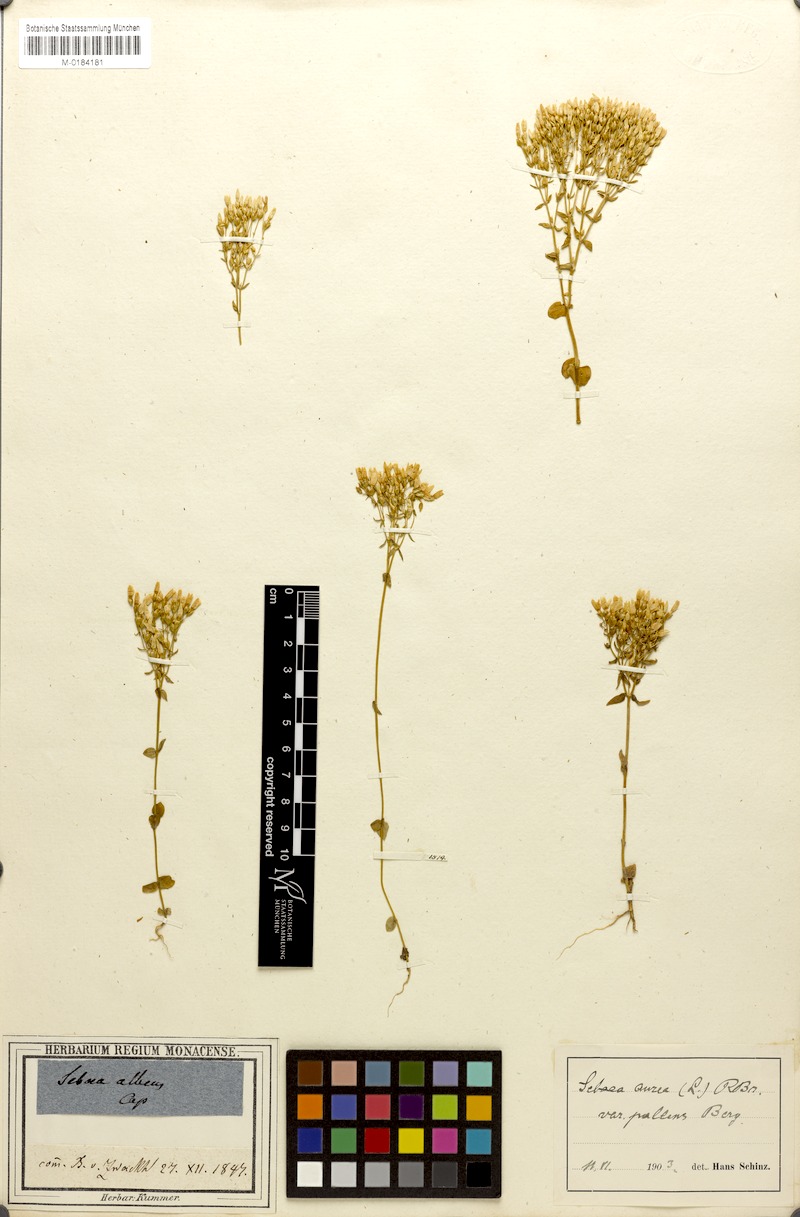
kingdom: Plantae
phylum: Tracheophyta
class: Magnoliopsida
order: Gentianales
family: Gentianaceae
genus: Sebaea
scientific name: Sebaea aurea
